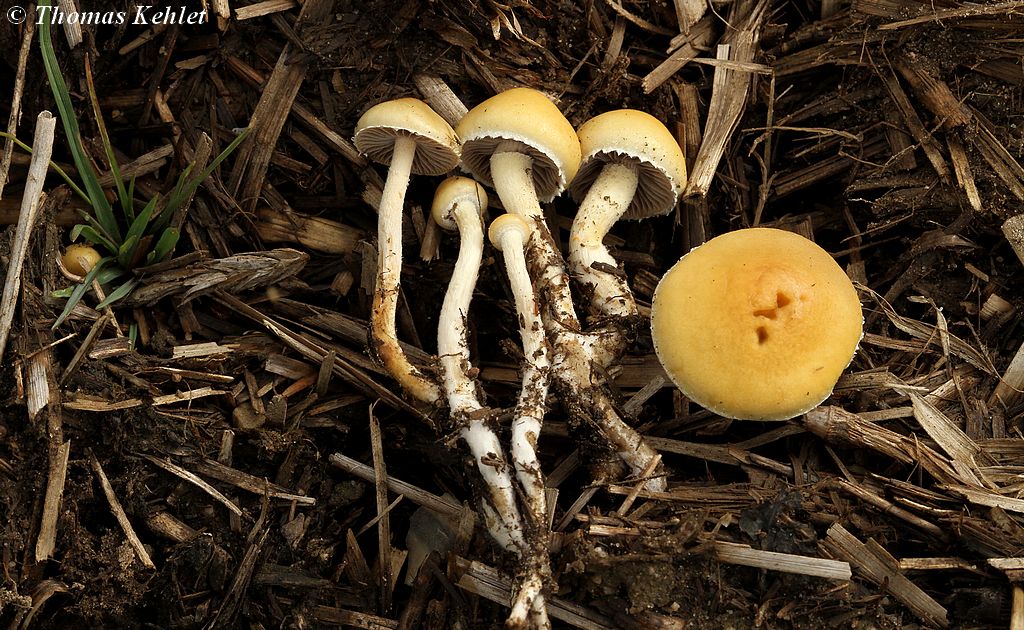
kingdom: Fungi
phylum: Basidiomycota
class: Agaricomycetes
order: Agaricales
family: Strophariaceae
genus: Deconica
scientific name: Deconica merdaria
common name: møg-stråhat
